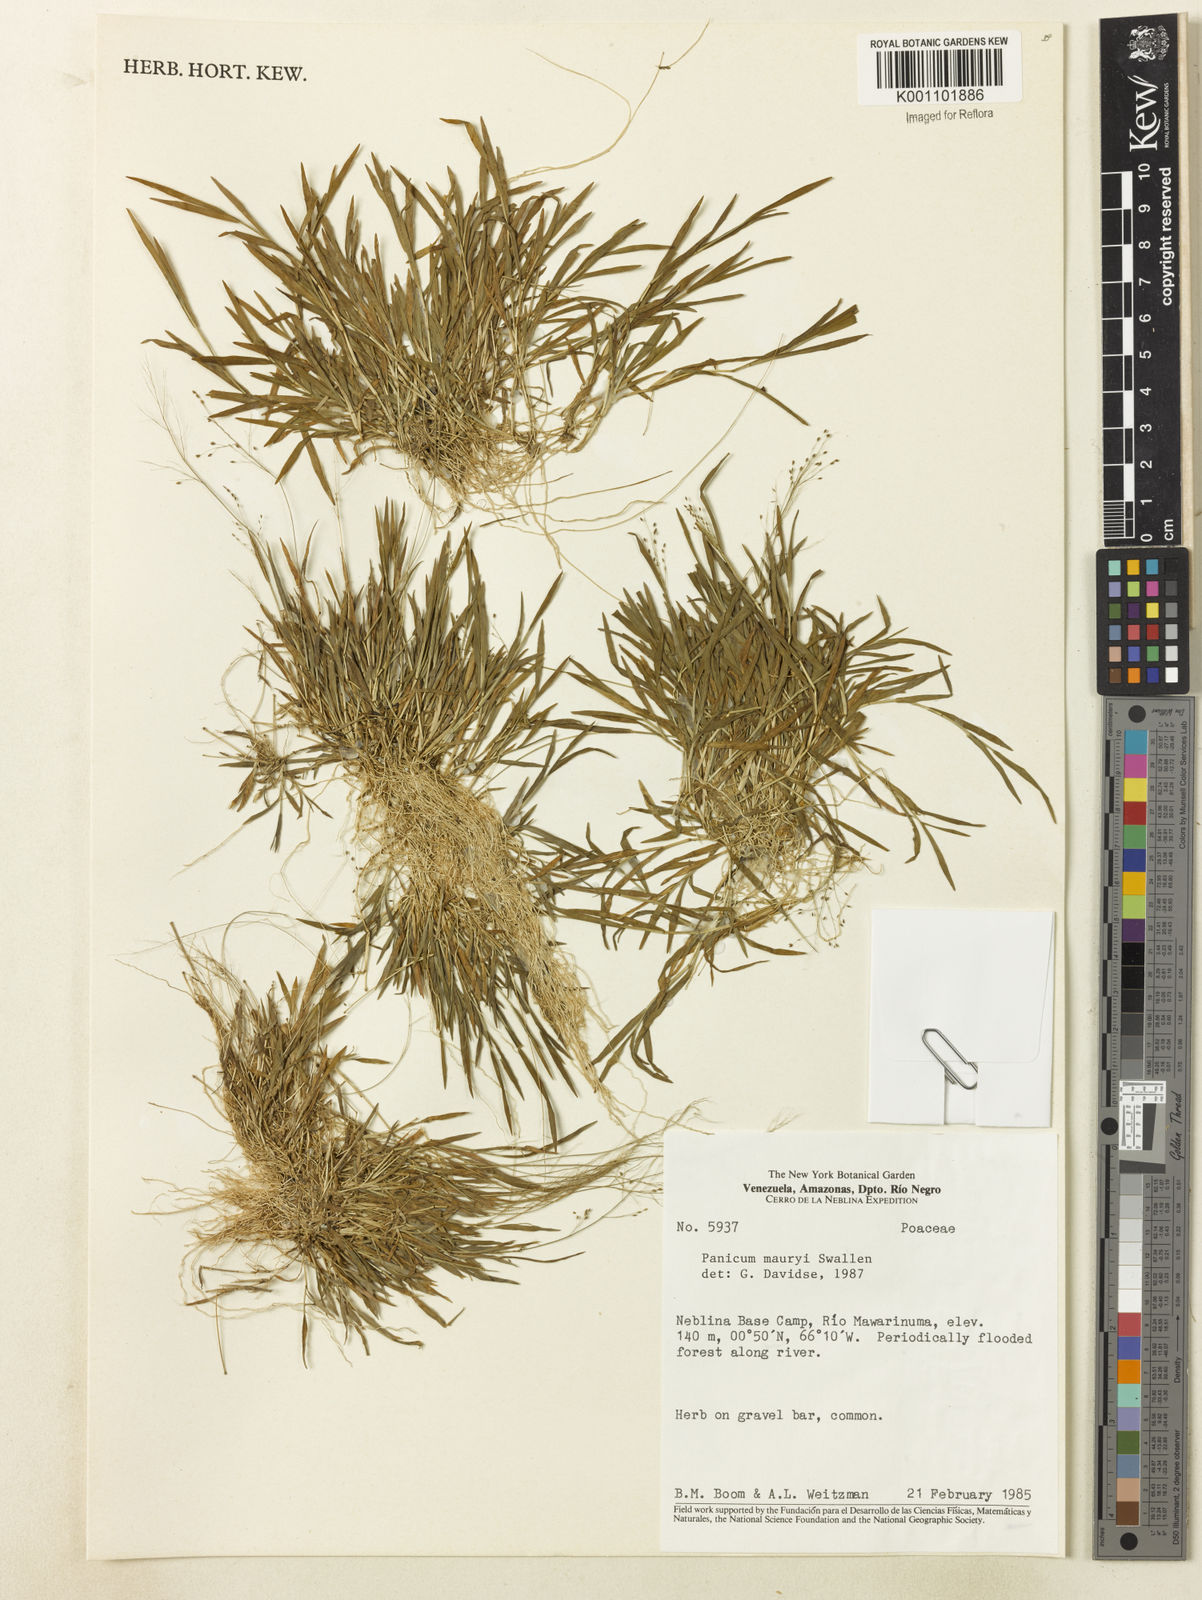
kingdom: Plantae
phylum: Tracheophyta
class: Liliopsida
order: Poales
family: Poaceae
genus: Trichanthecium
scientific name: Trichanthecium micranthum
